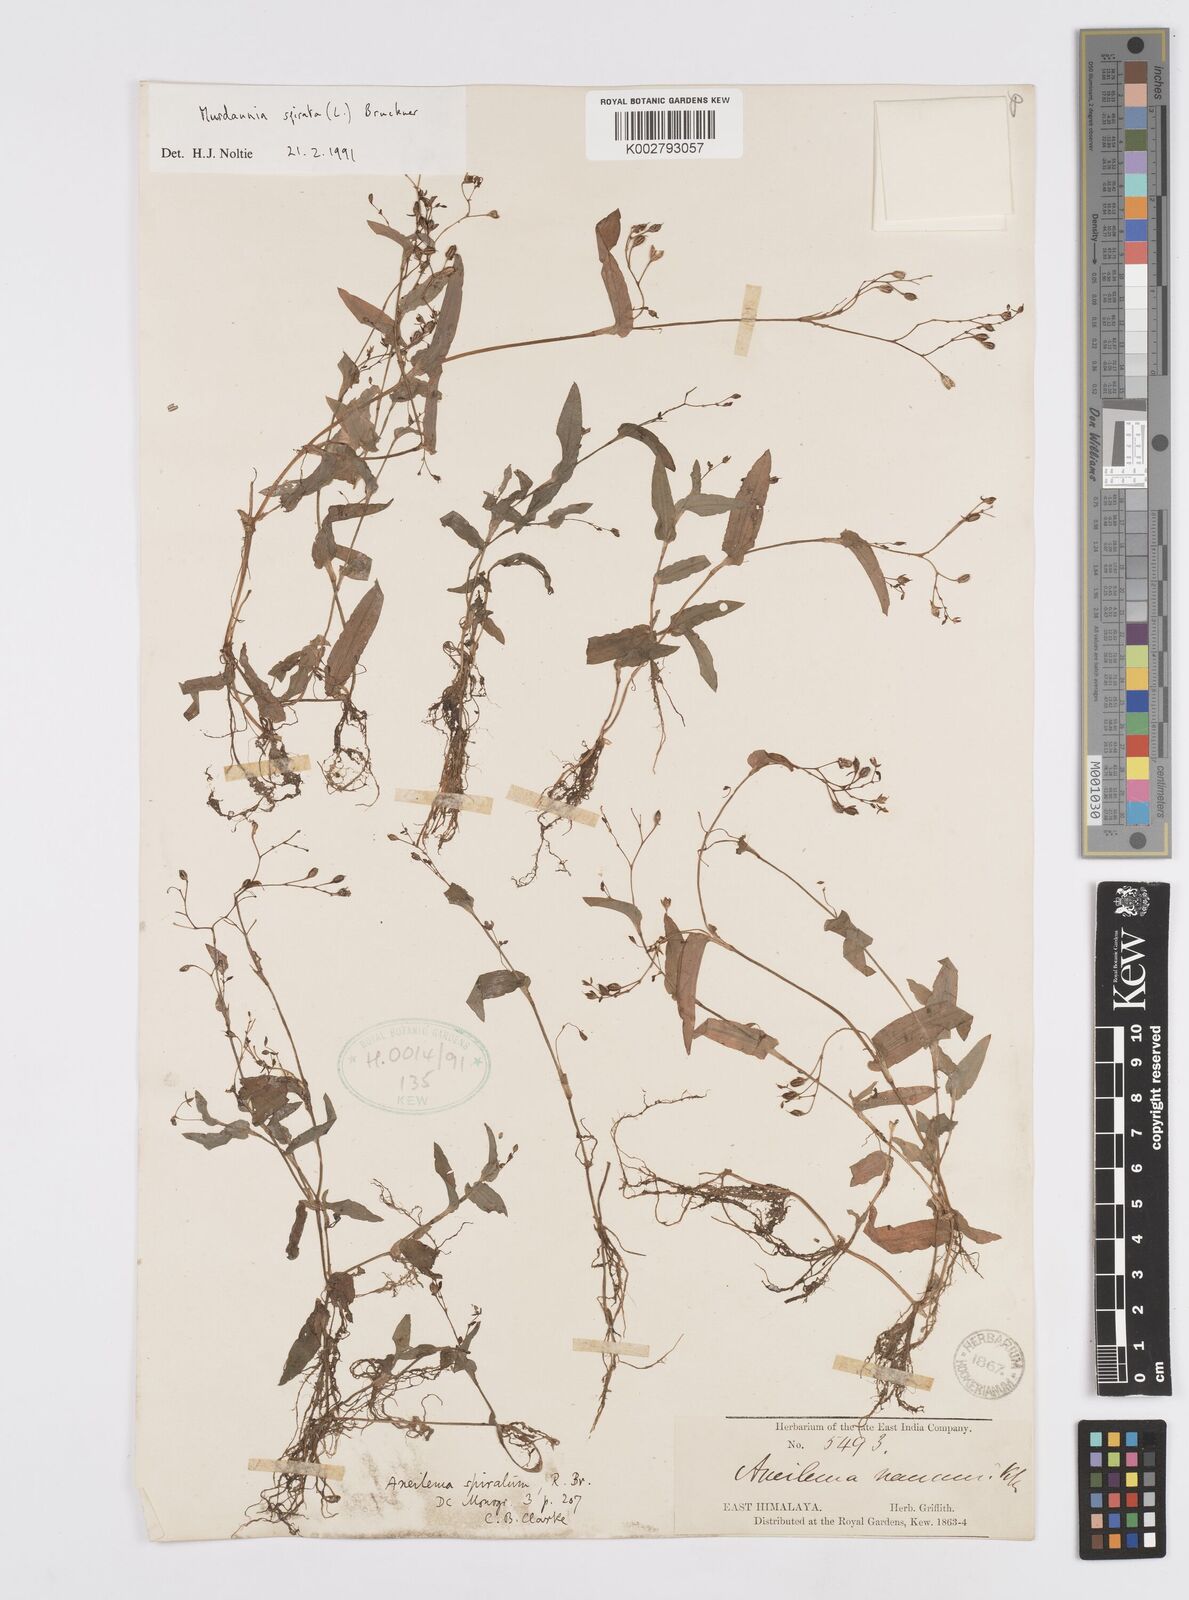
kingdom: Plantae
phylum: Tracheophyta
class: Liliopsida
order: Commelinales
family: Commelinaceae
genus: Murdannia
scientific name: Murdannia spirata
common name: Asiatic dewflower
